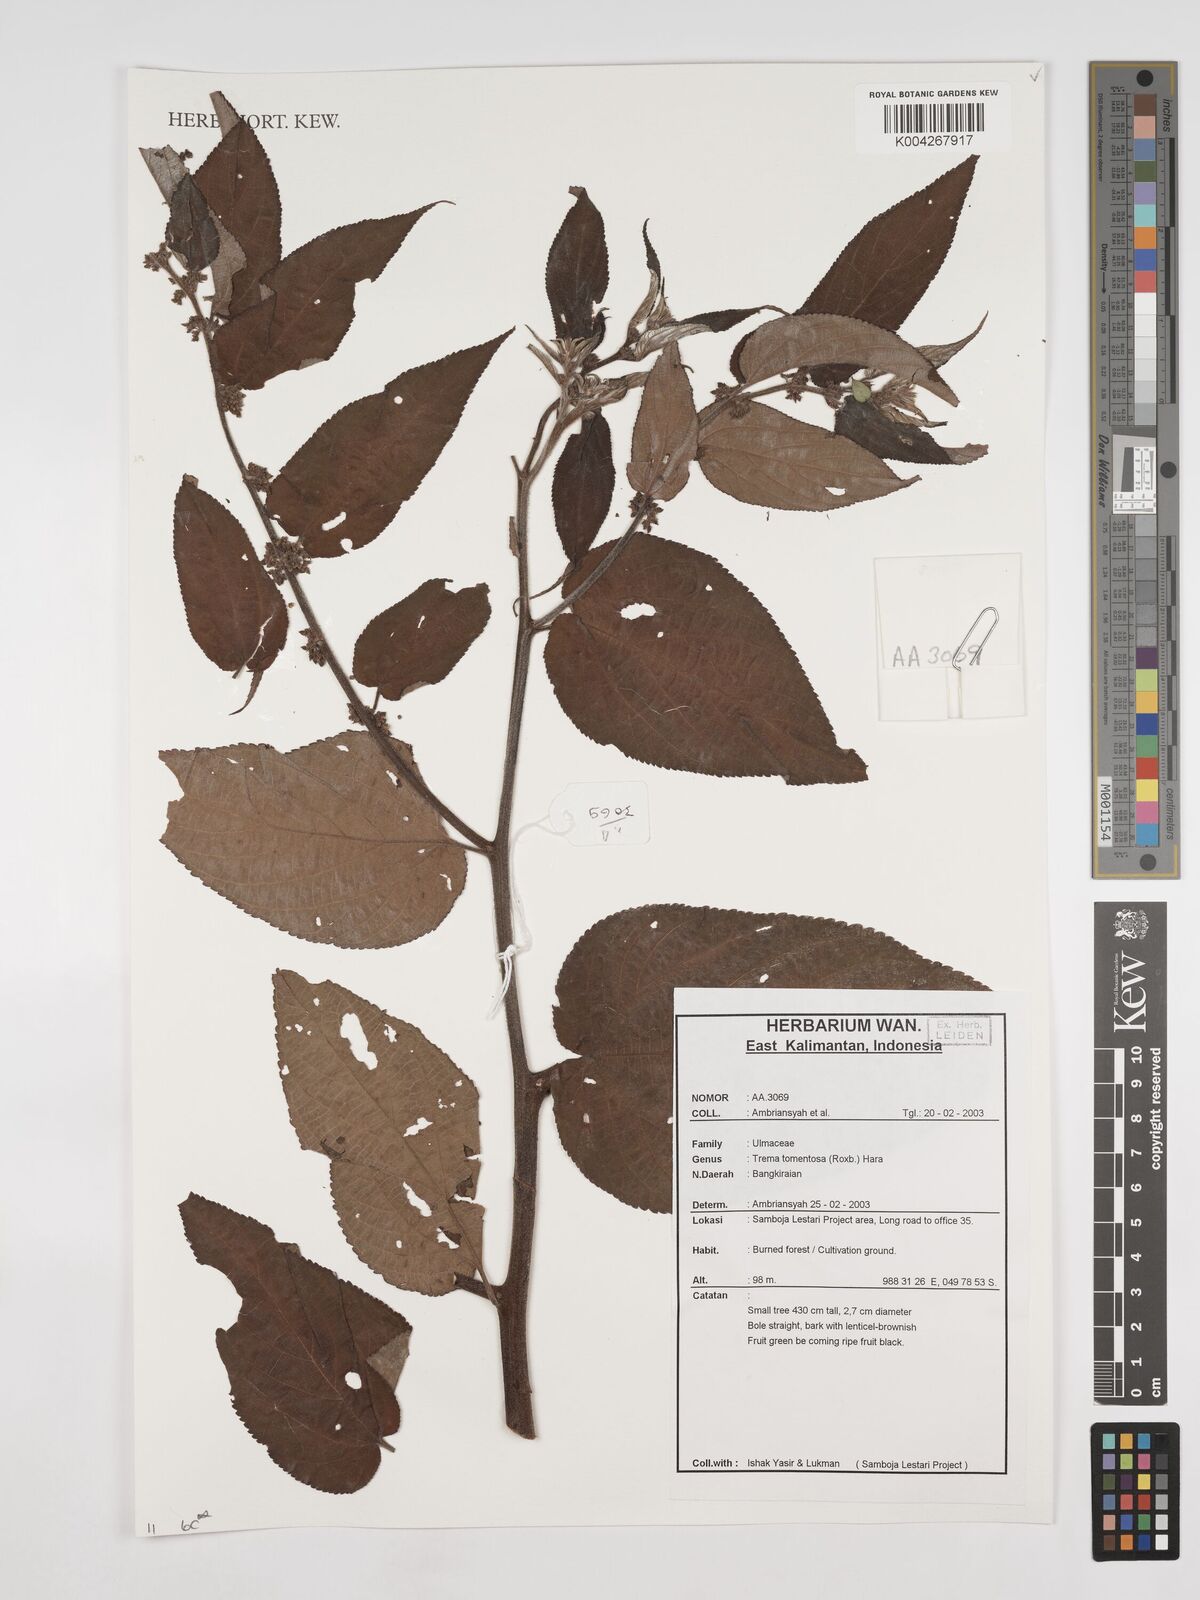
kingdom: Plantae
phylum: Tracheophyta
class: Magnoliopsida
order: Rosales
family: Cannabaceae
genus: Trema
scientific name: Trema tomentosum
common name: Peach-leaf-poisonbush
